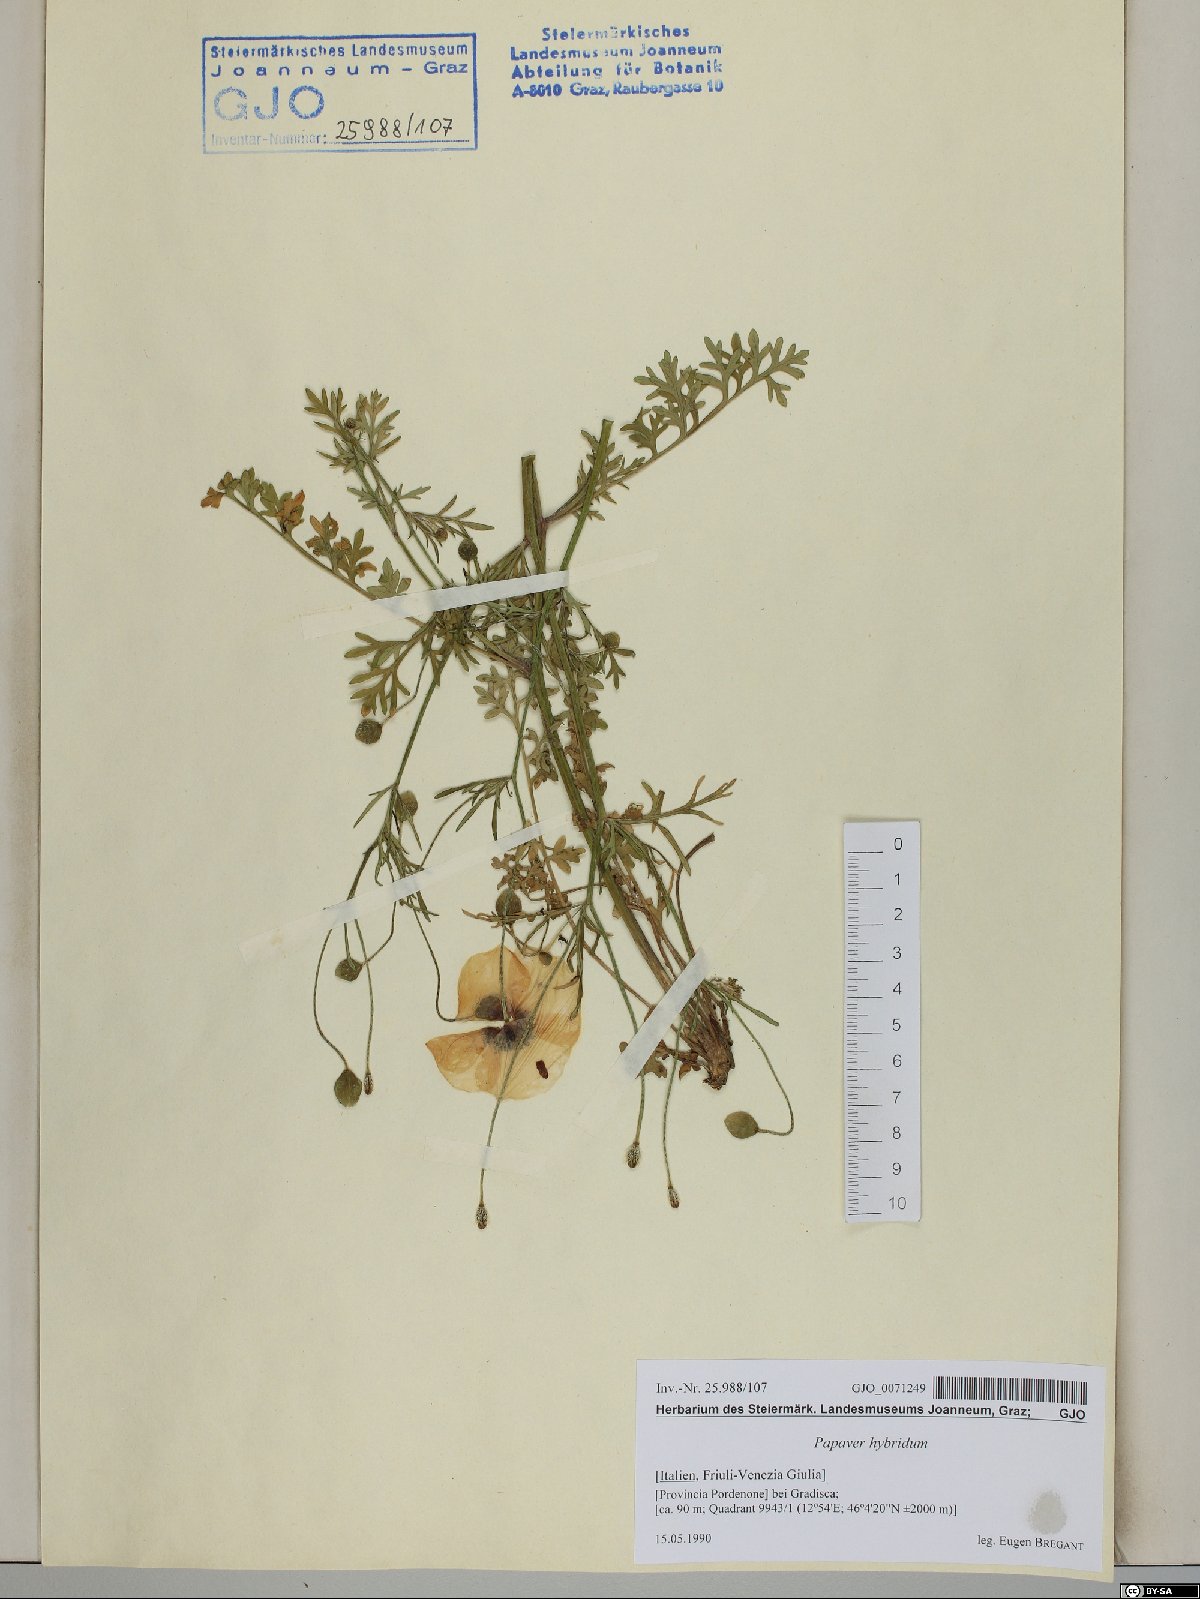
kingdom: Plantae
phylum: Tracheophyta
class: Magnoliopsida
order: Ranunculales
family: Papaveraceae
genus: Roemeria
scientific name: Roemeria hispida
